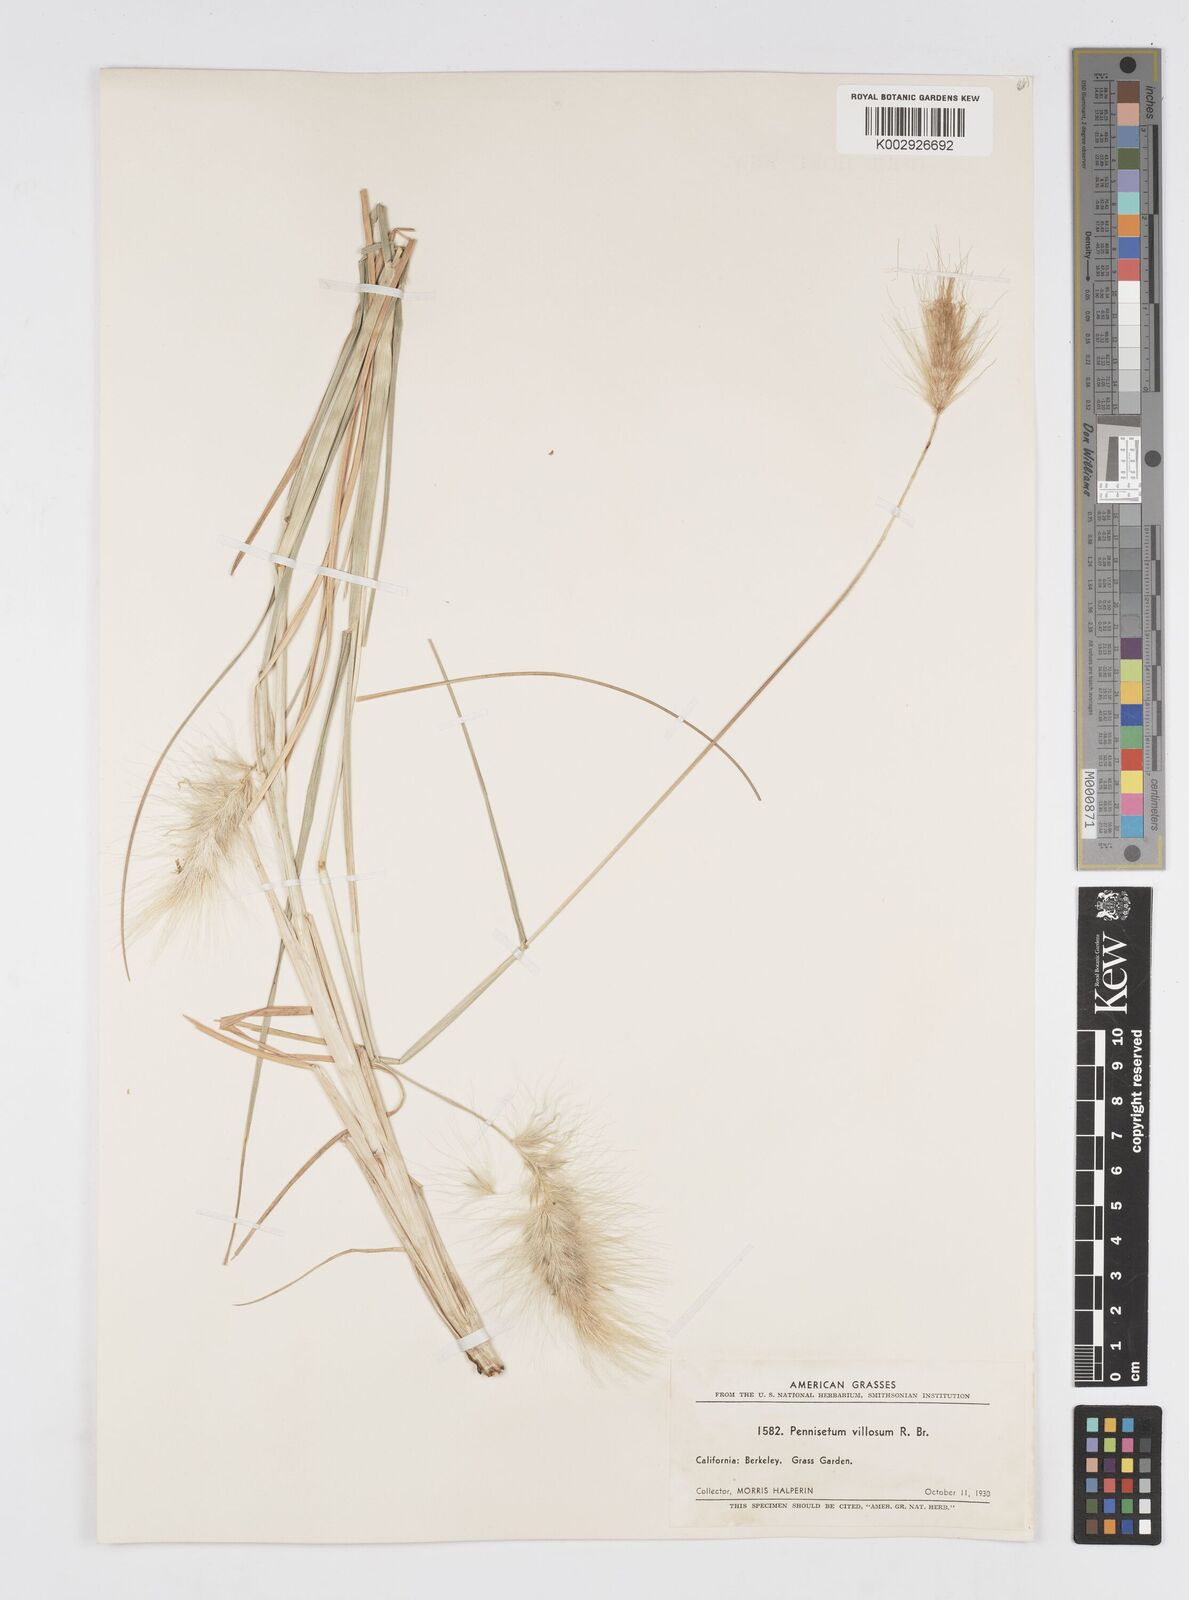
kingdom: Plantae
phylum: Tracheophyta
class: Liliopsida
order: Poales
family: Poaceae
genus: Cenchrus
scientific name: Cenchrus longisetus
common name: Feathertop
